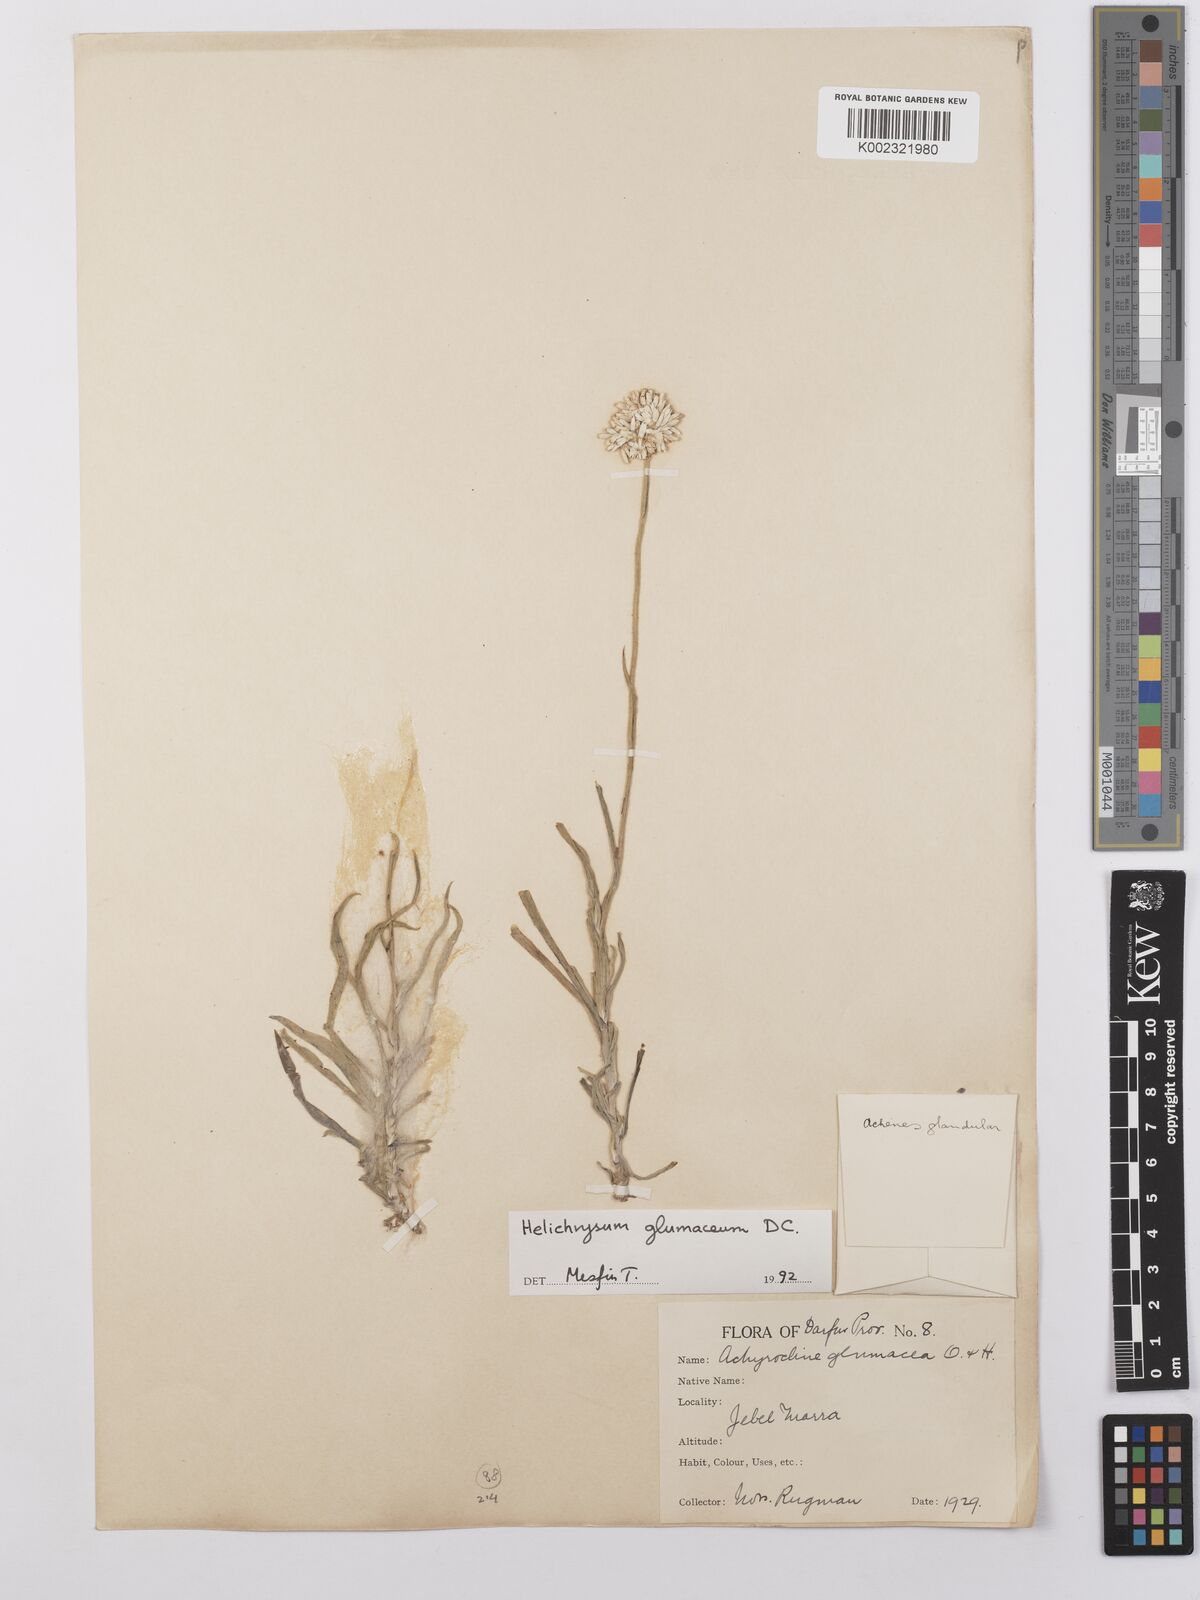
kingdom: Plantae
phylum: Tracheophyta
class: Magnoliopsida
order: Asterales
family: Asteraceae
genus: Helichrysum
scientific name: Helichrysum glumaceum
